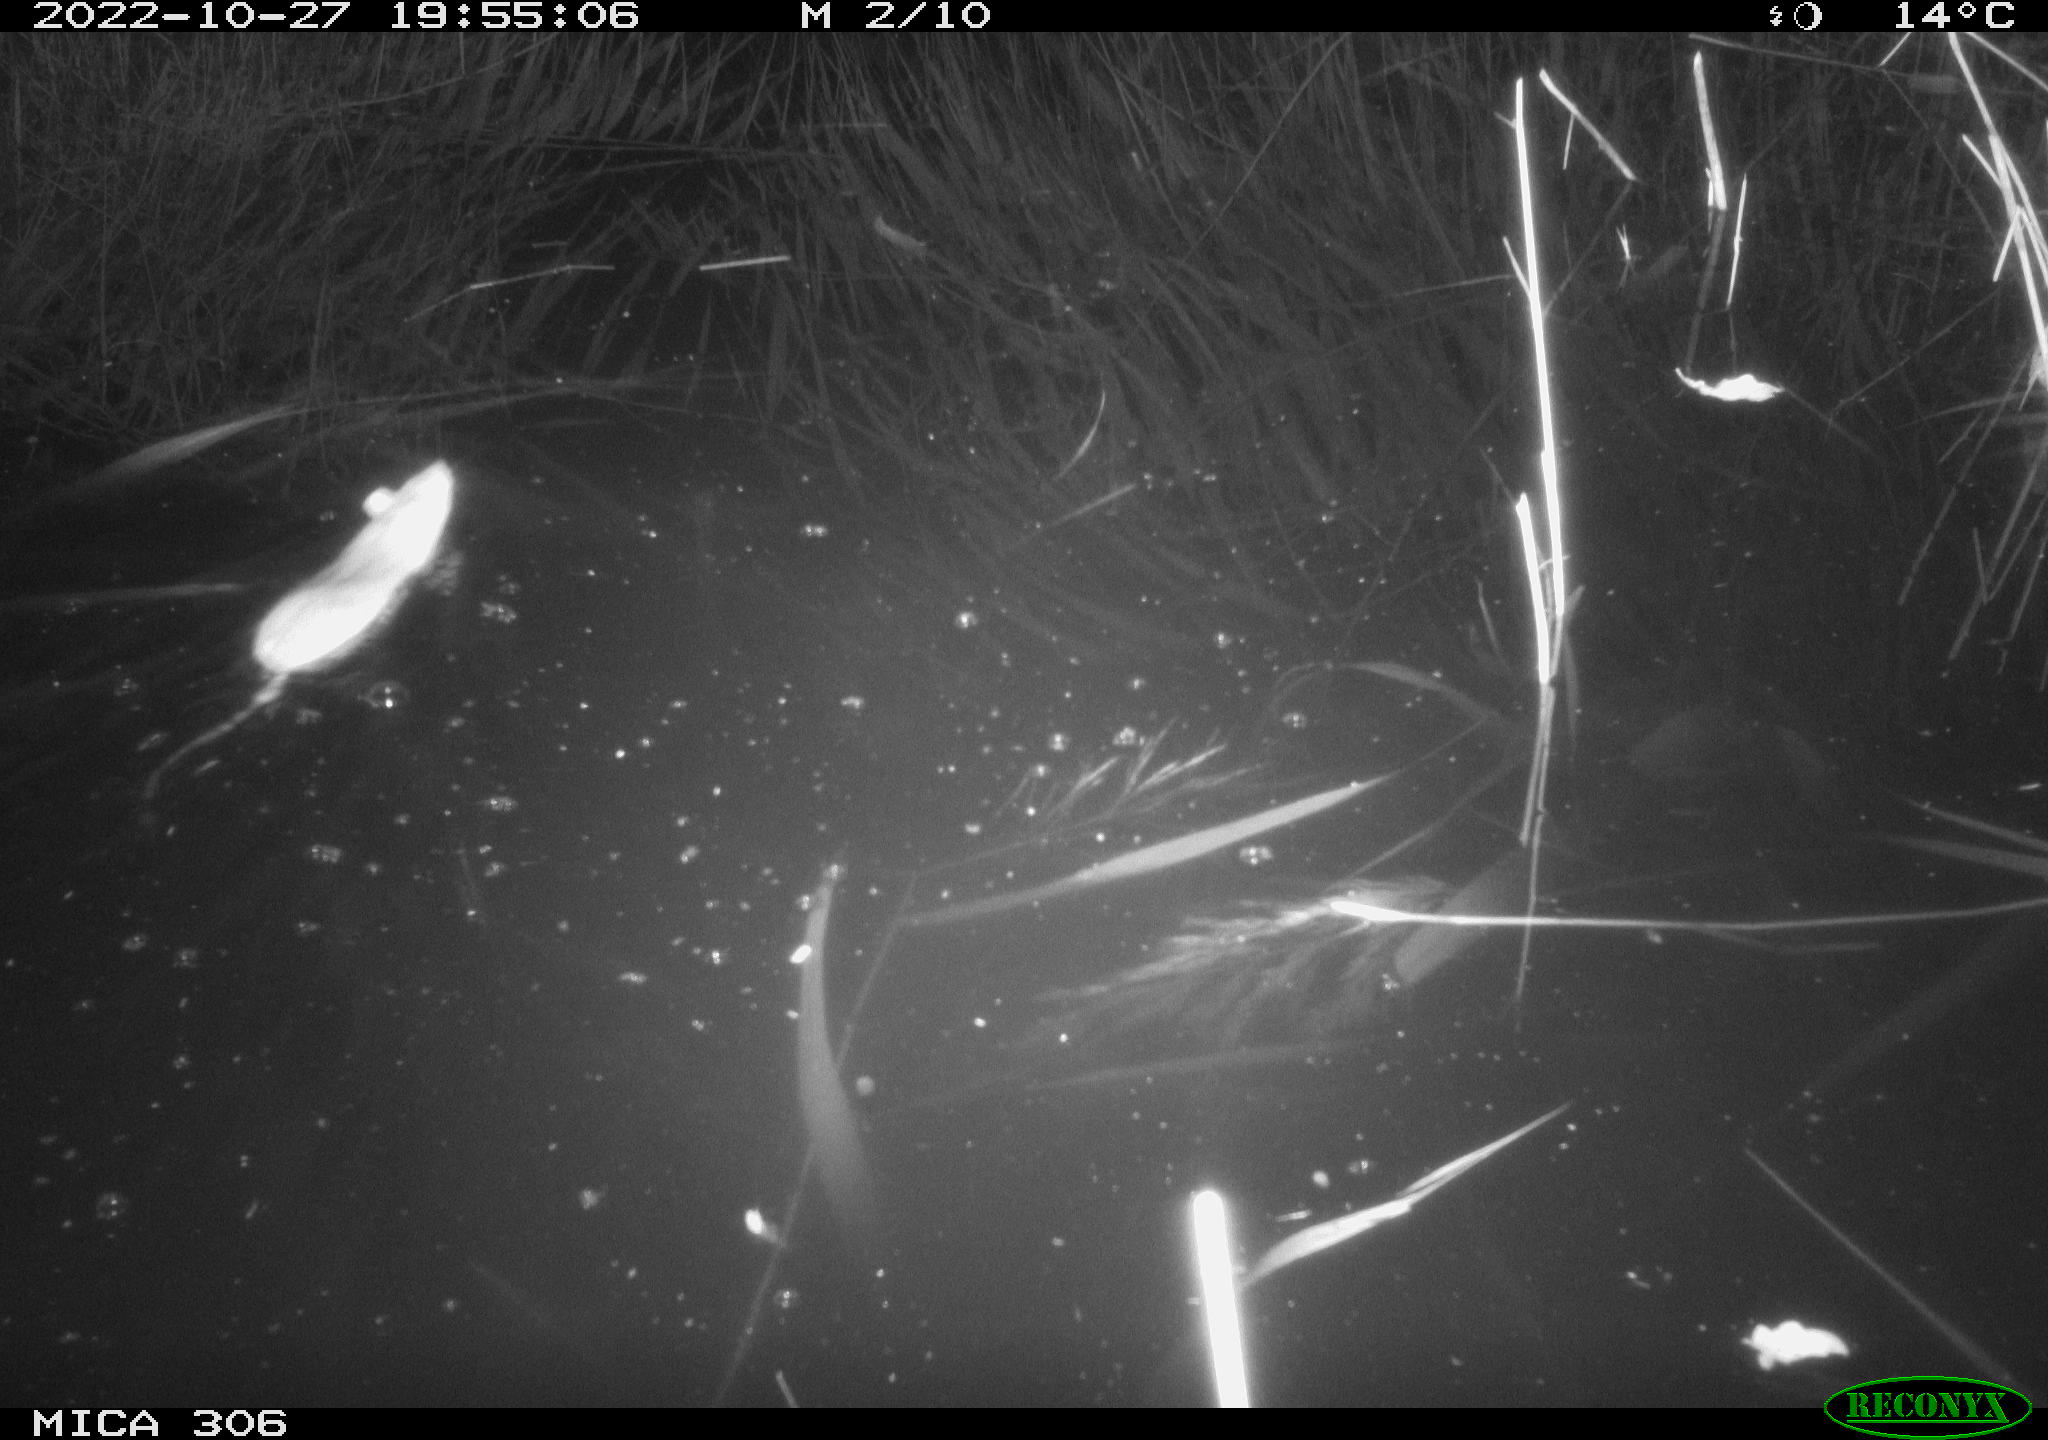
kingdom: Animalia
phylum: Chordata
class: Mammalia
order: Rodentia
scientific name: Rodentia
